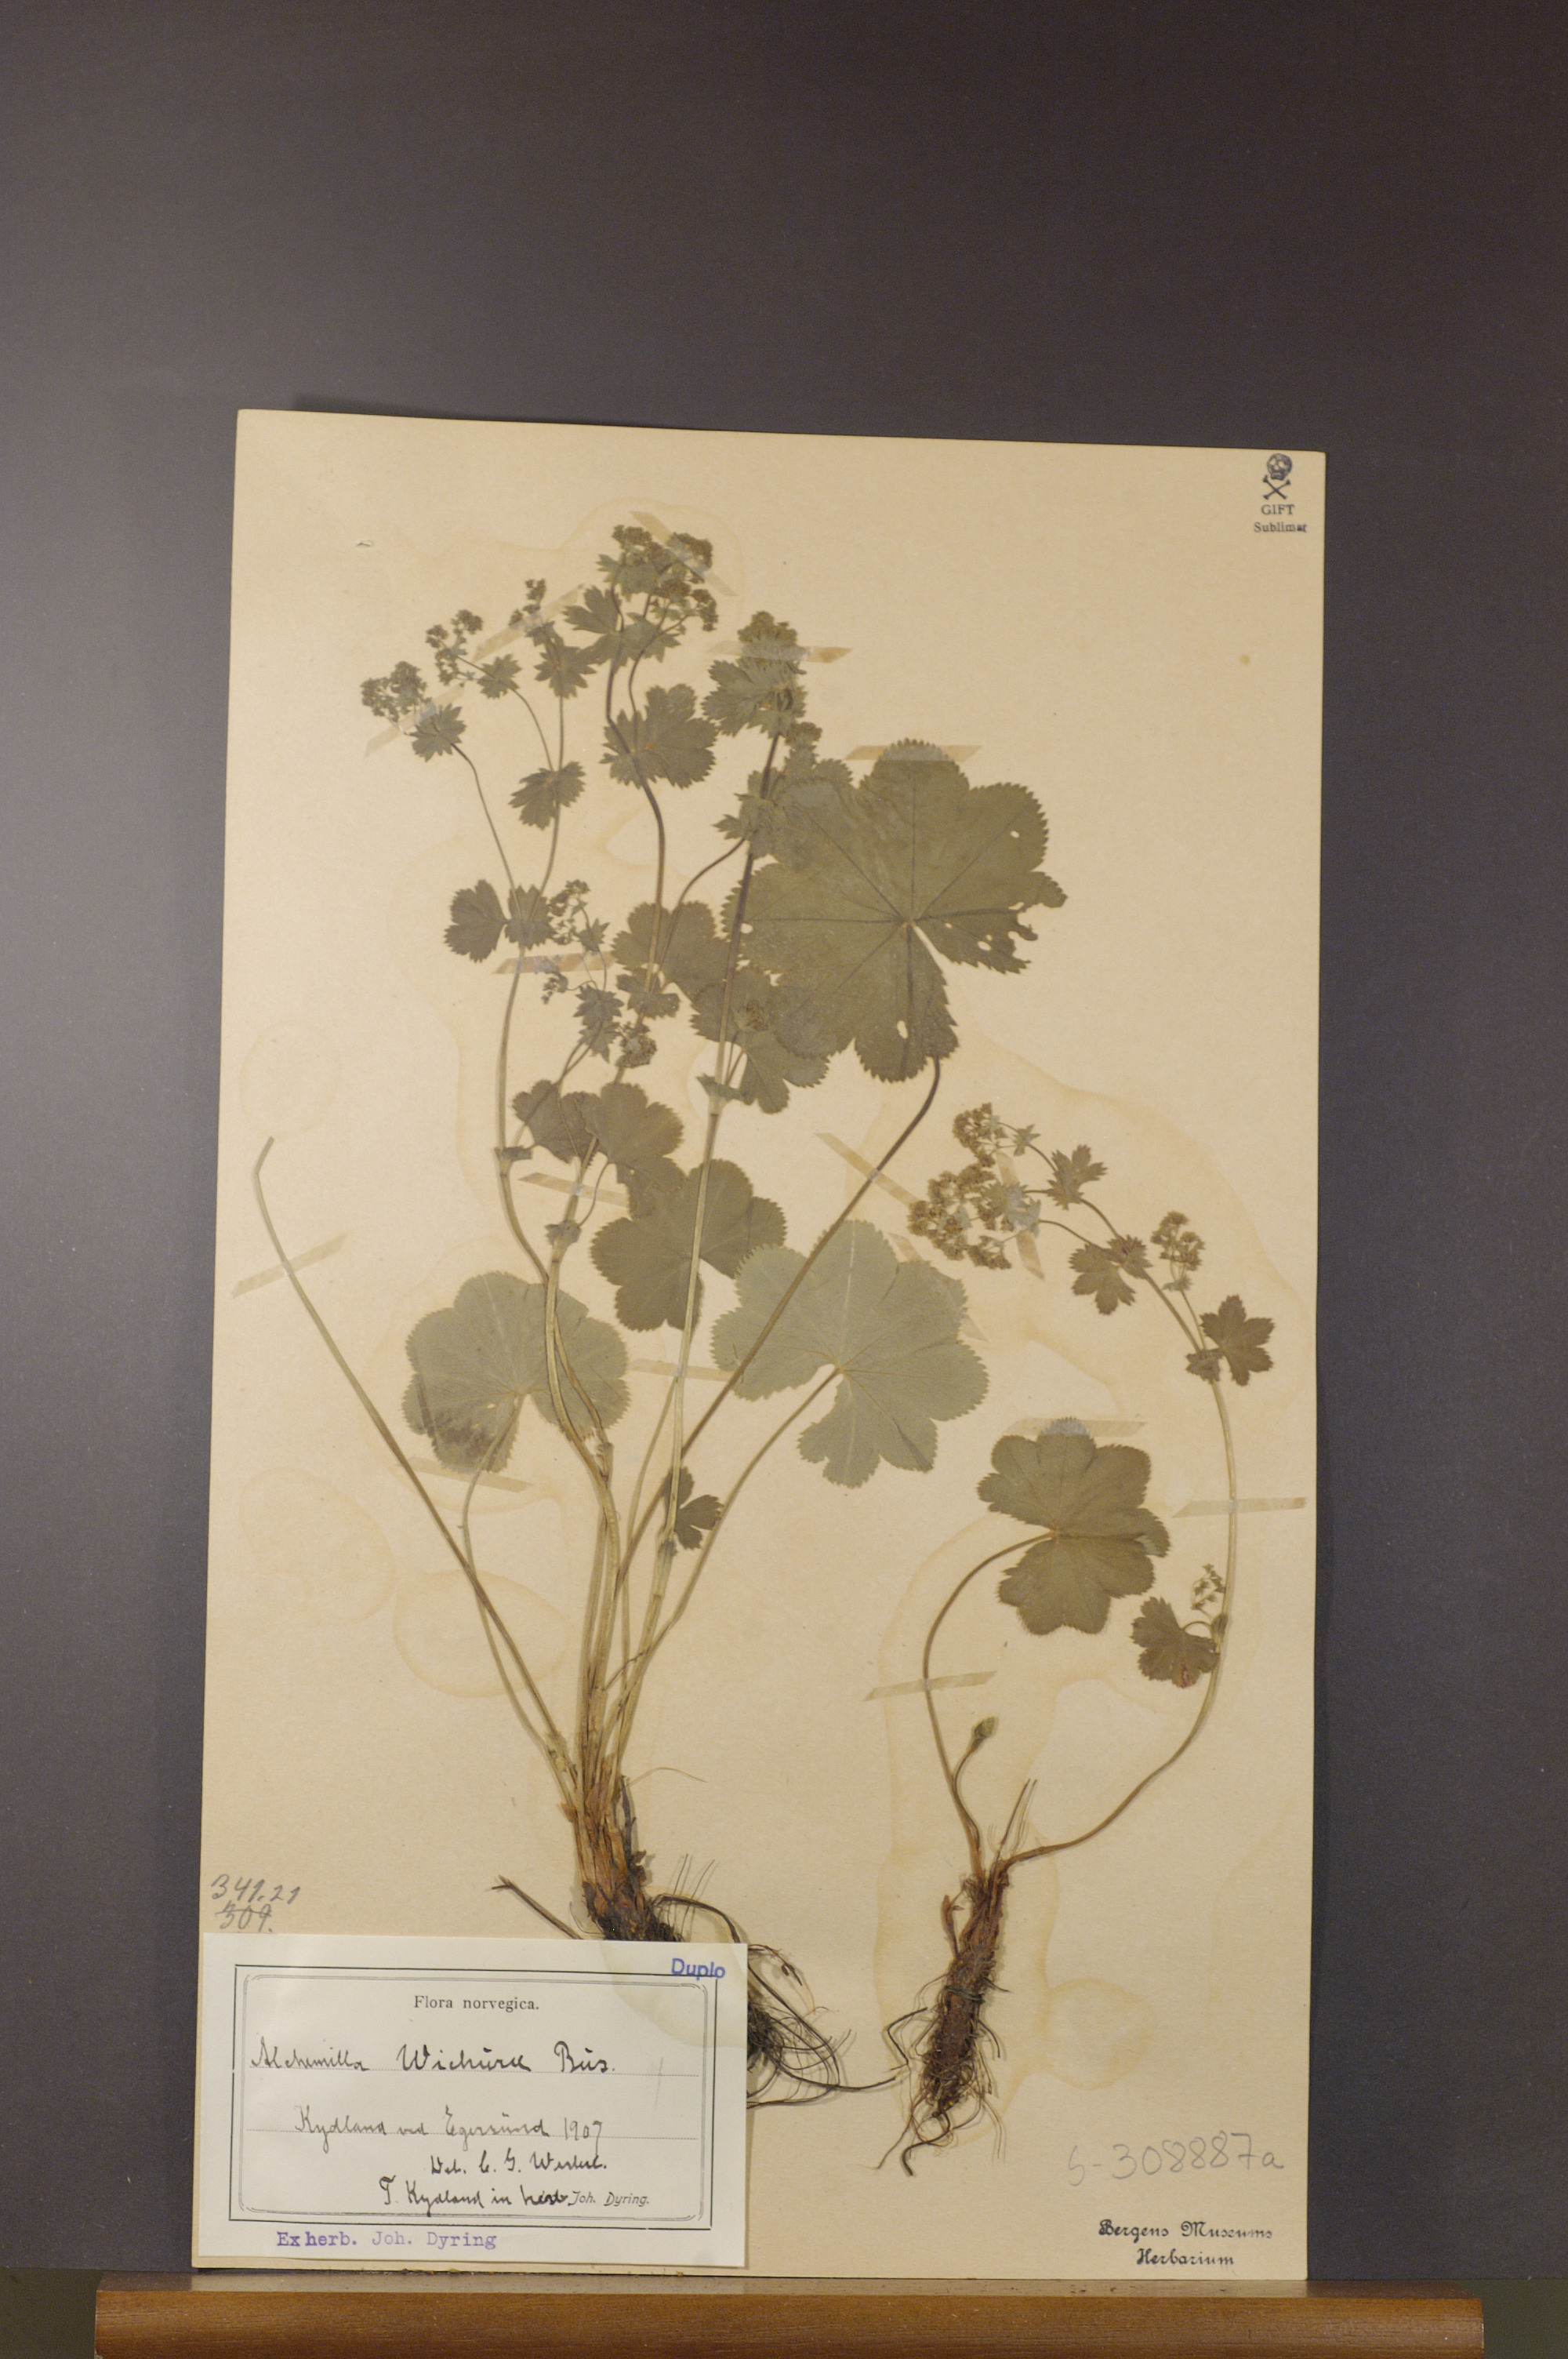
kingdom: Plantae
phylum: Tracheophyta
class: Magnoliopsida
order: Rosales
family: Rosaceae
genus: Alchemilla
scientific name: Alchemilla wichurae
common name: Rock lady's mantle
